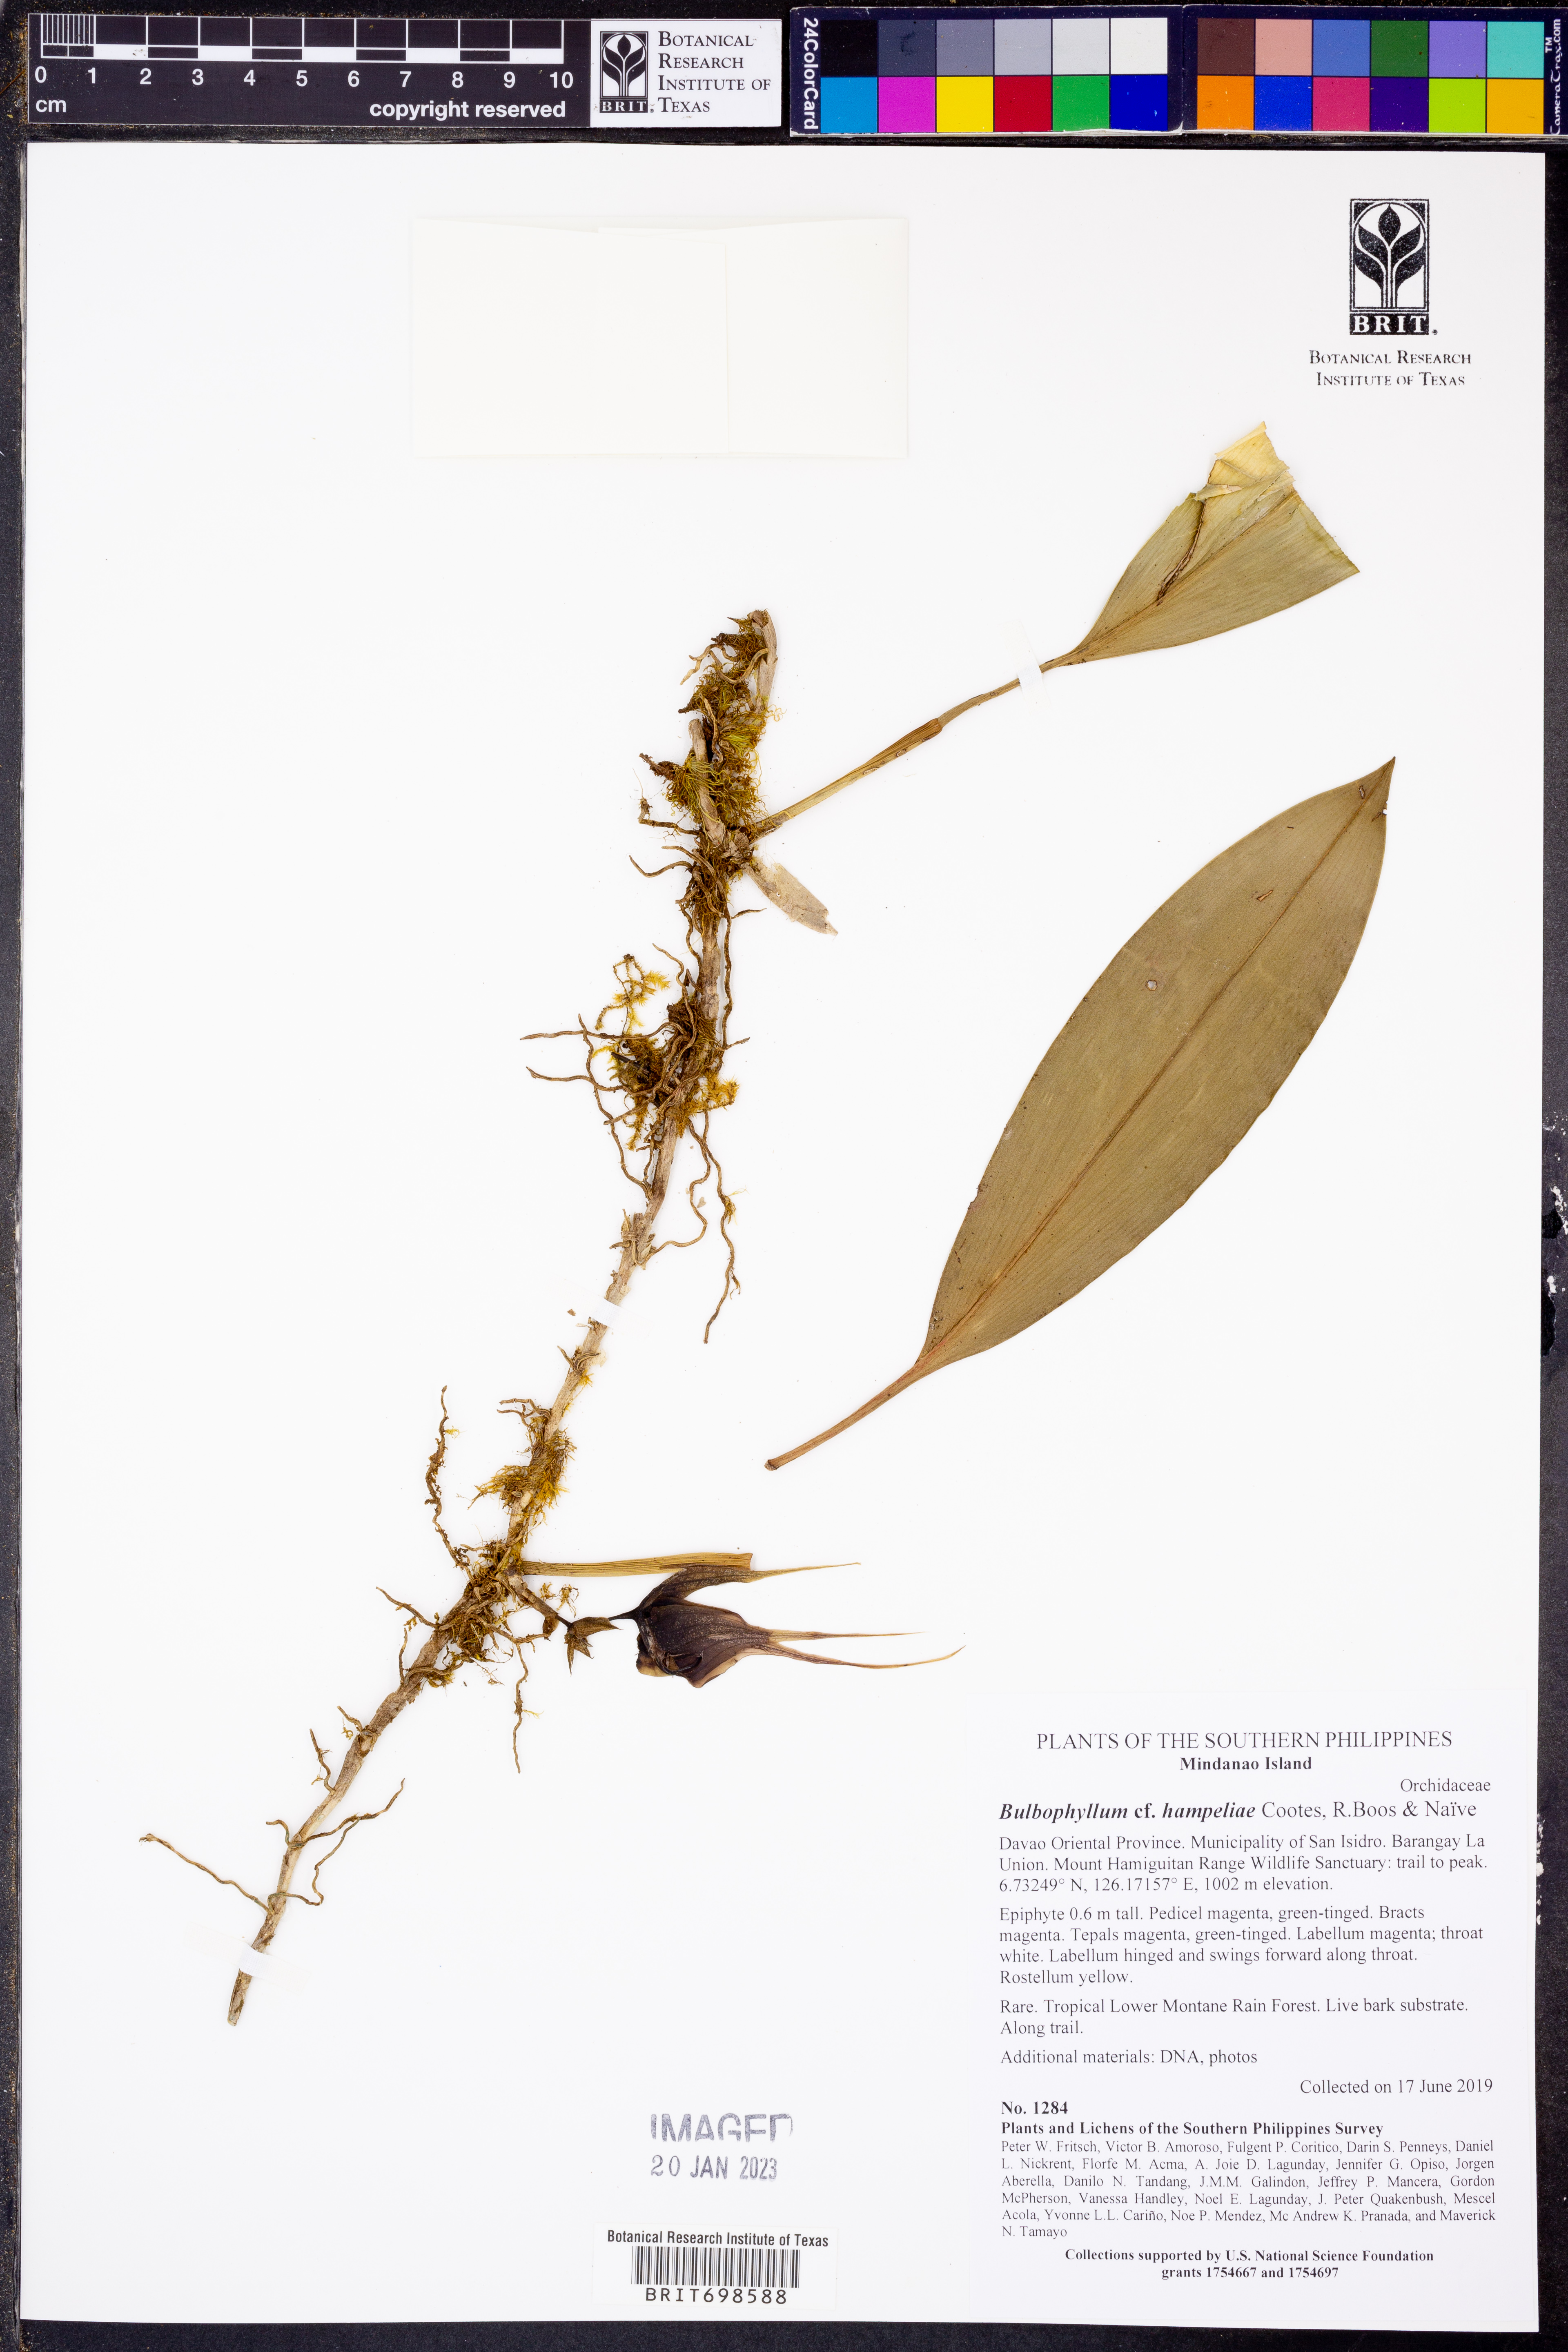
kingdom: Plantae
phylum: Tracheophyta
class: Liliopsida
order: Asparagales
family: Orchidaceae
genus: Bulbophyllum
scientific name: Bulbophyllum hampeliae
